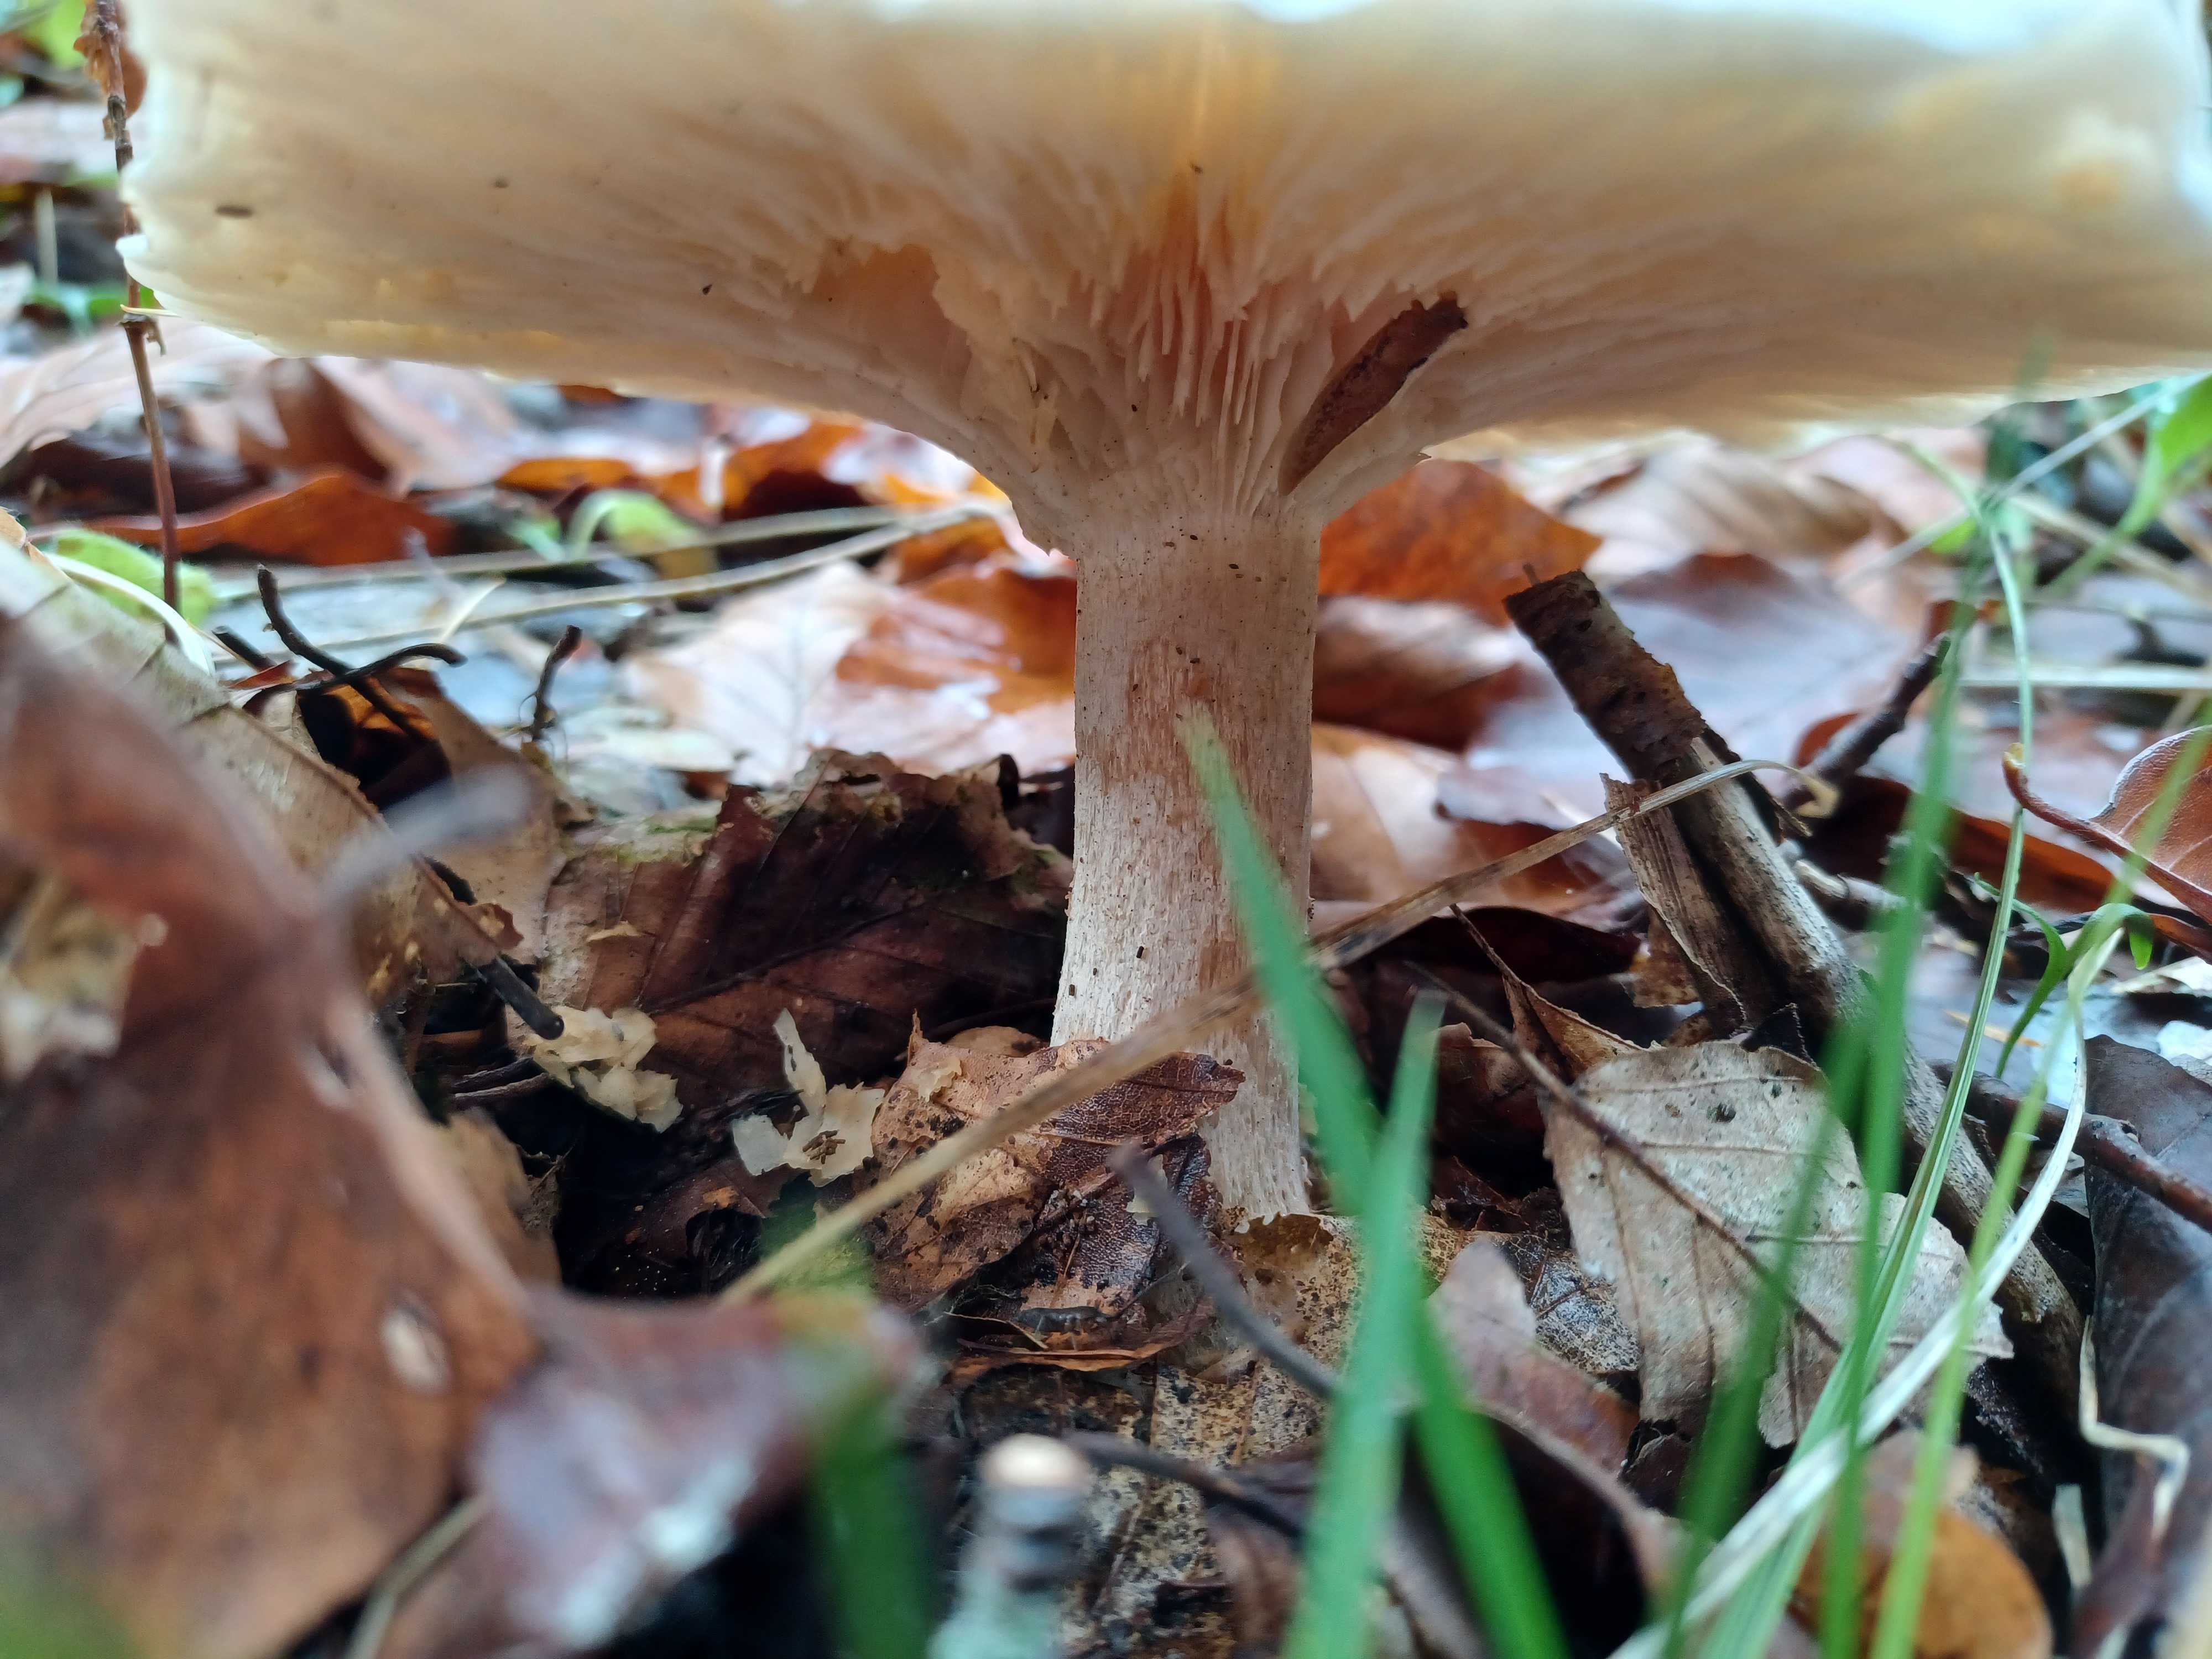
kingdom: Fungi
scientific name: Fungi
